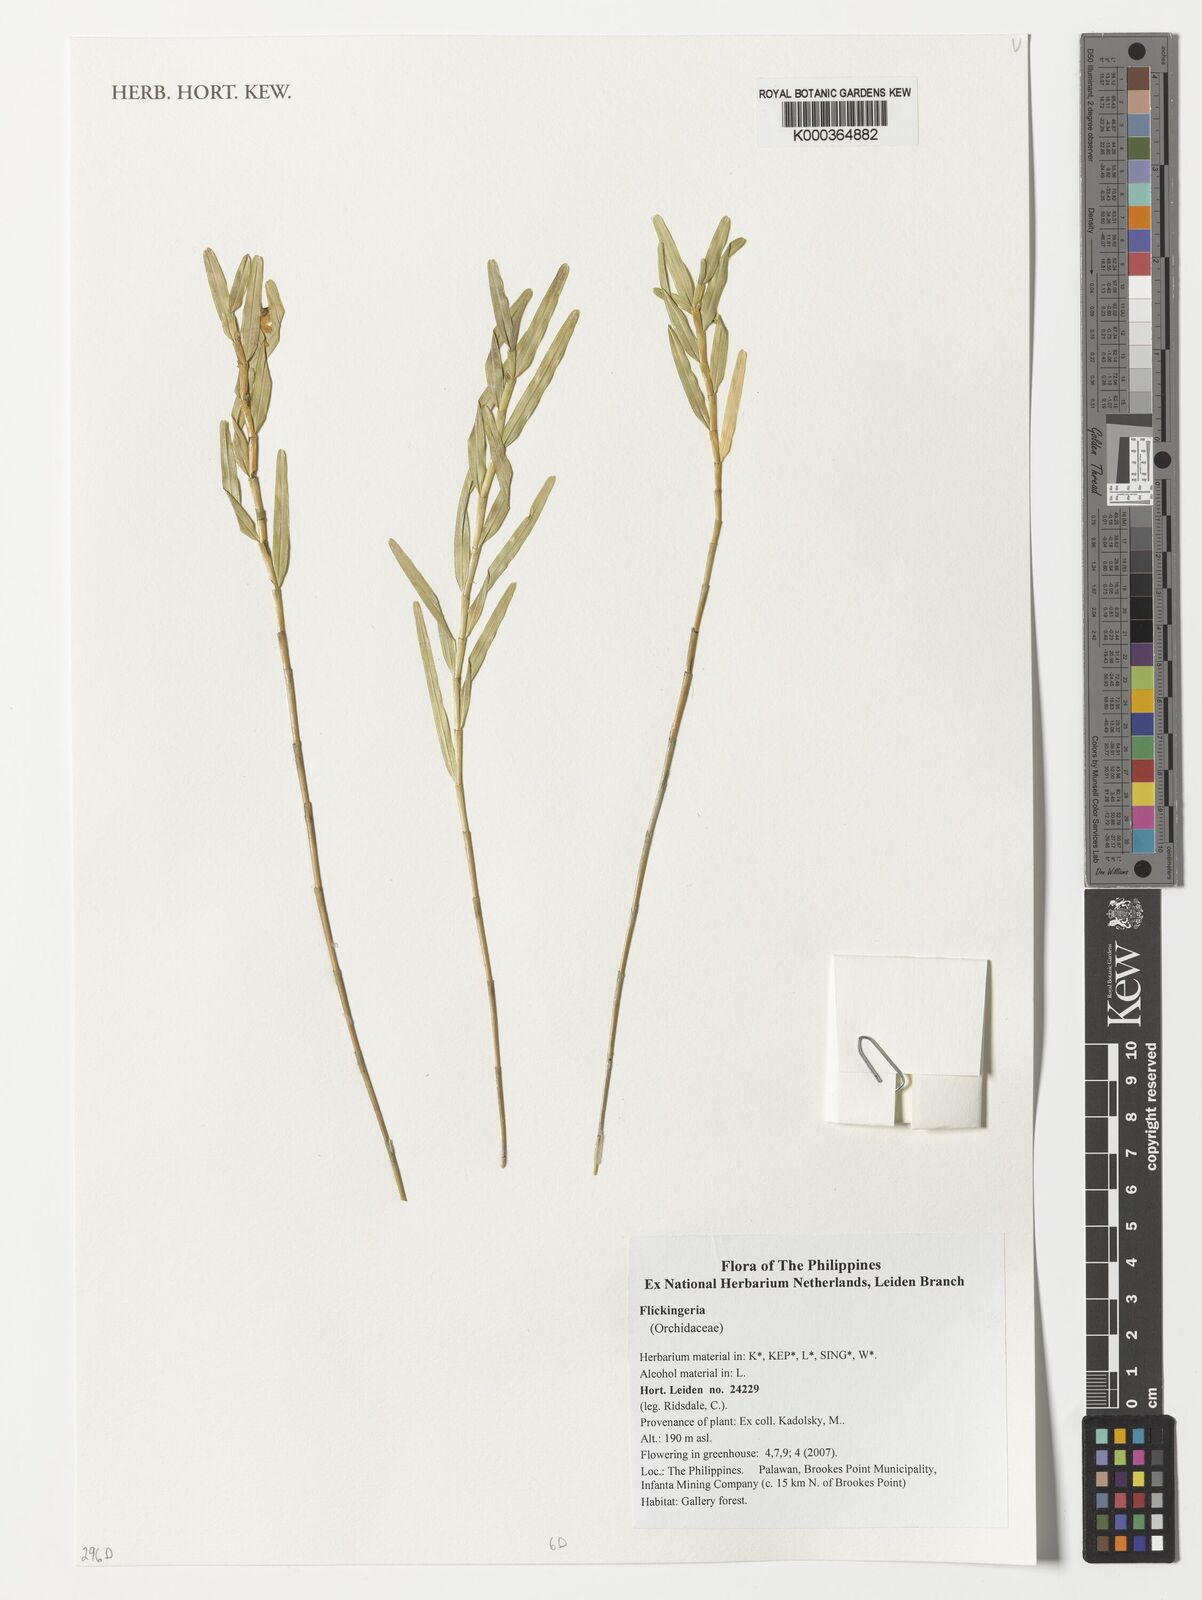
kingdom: Plantae
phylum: Tracheophyta
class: Liliopsida
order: Asparagales
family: Orchidaceae
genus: Dendrobium
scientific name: Dendrobium
